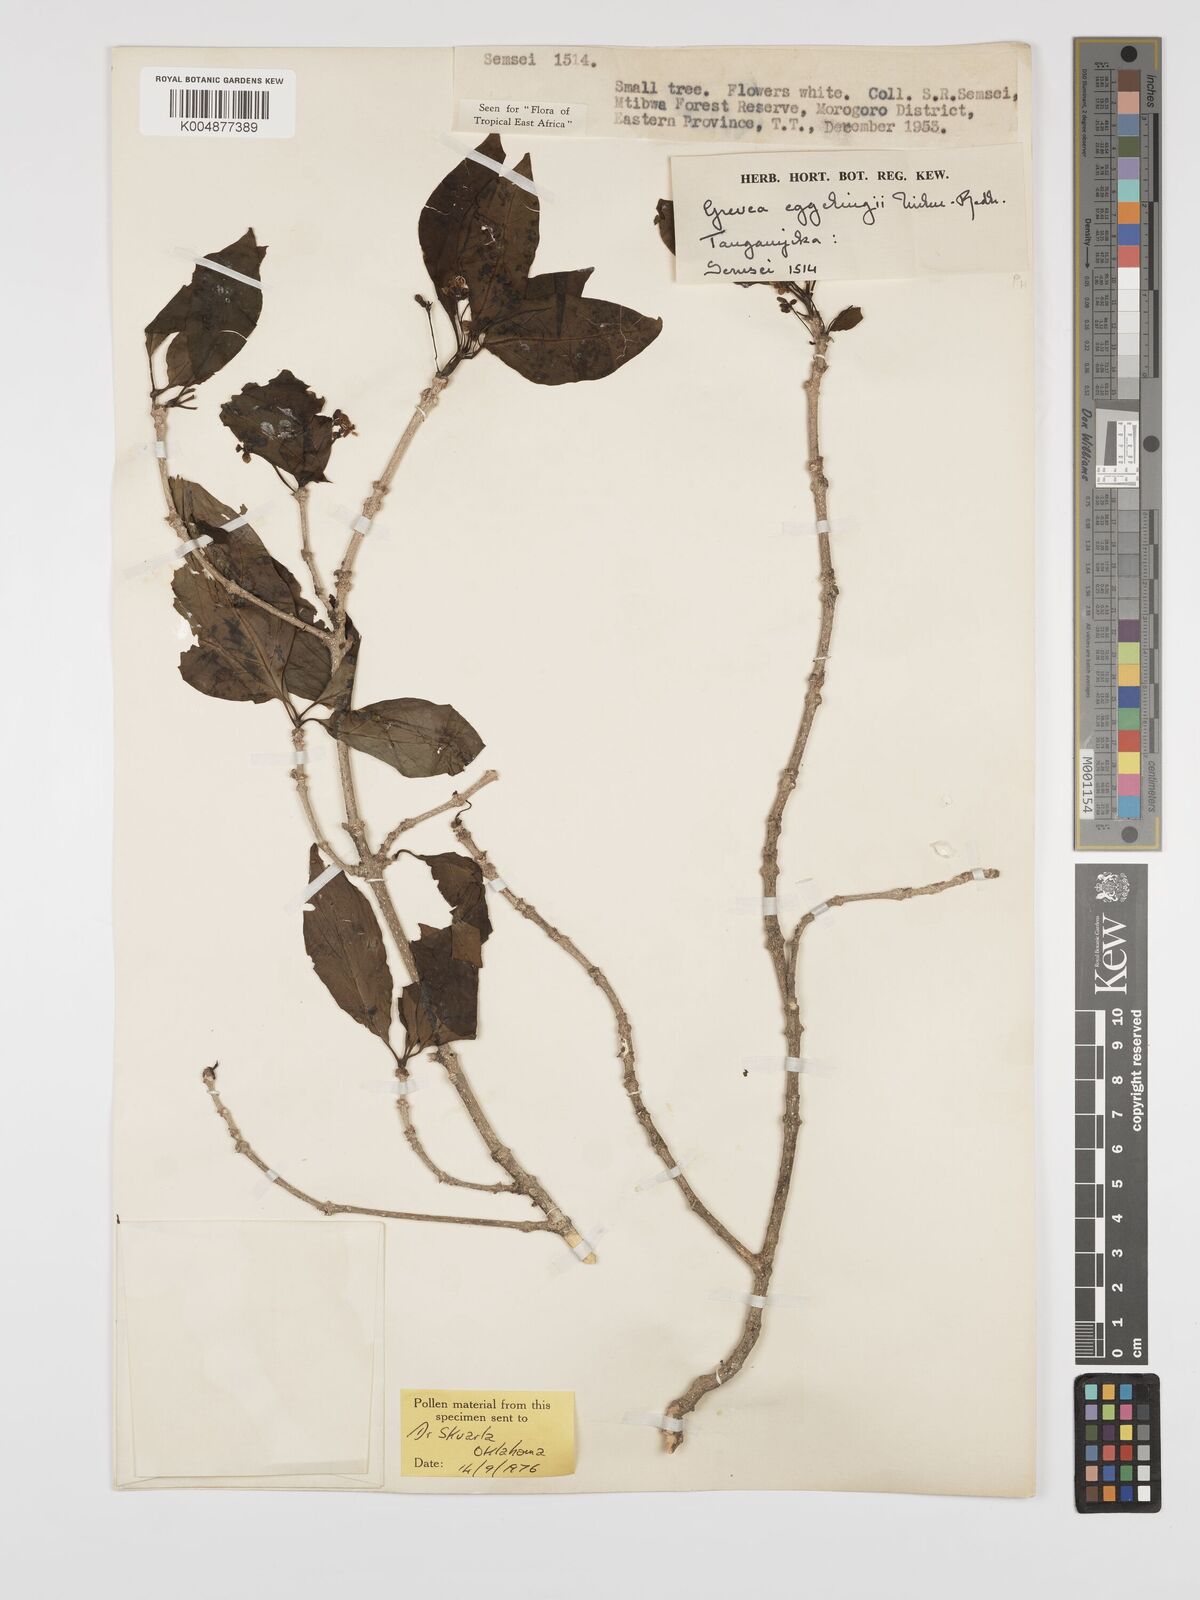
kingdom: Plantae
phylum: Tracheophyta
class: Magnoliopsida
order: Solanales
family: Montiniaceae
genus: Grevea
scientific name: Grevea eggelingii
